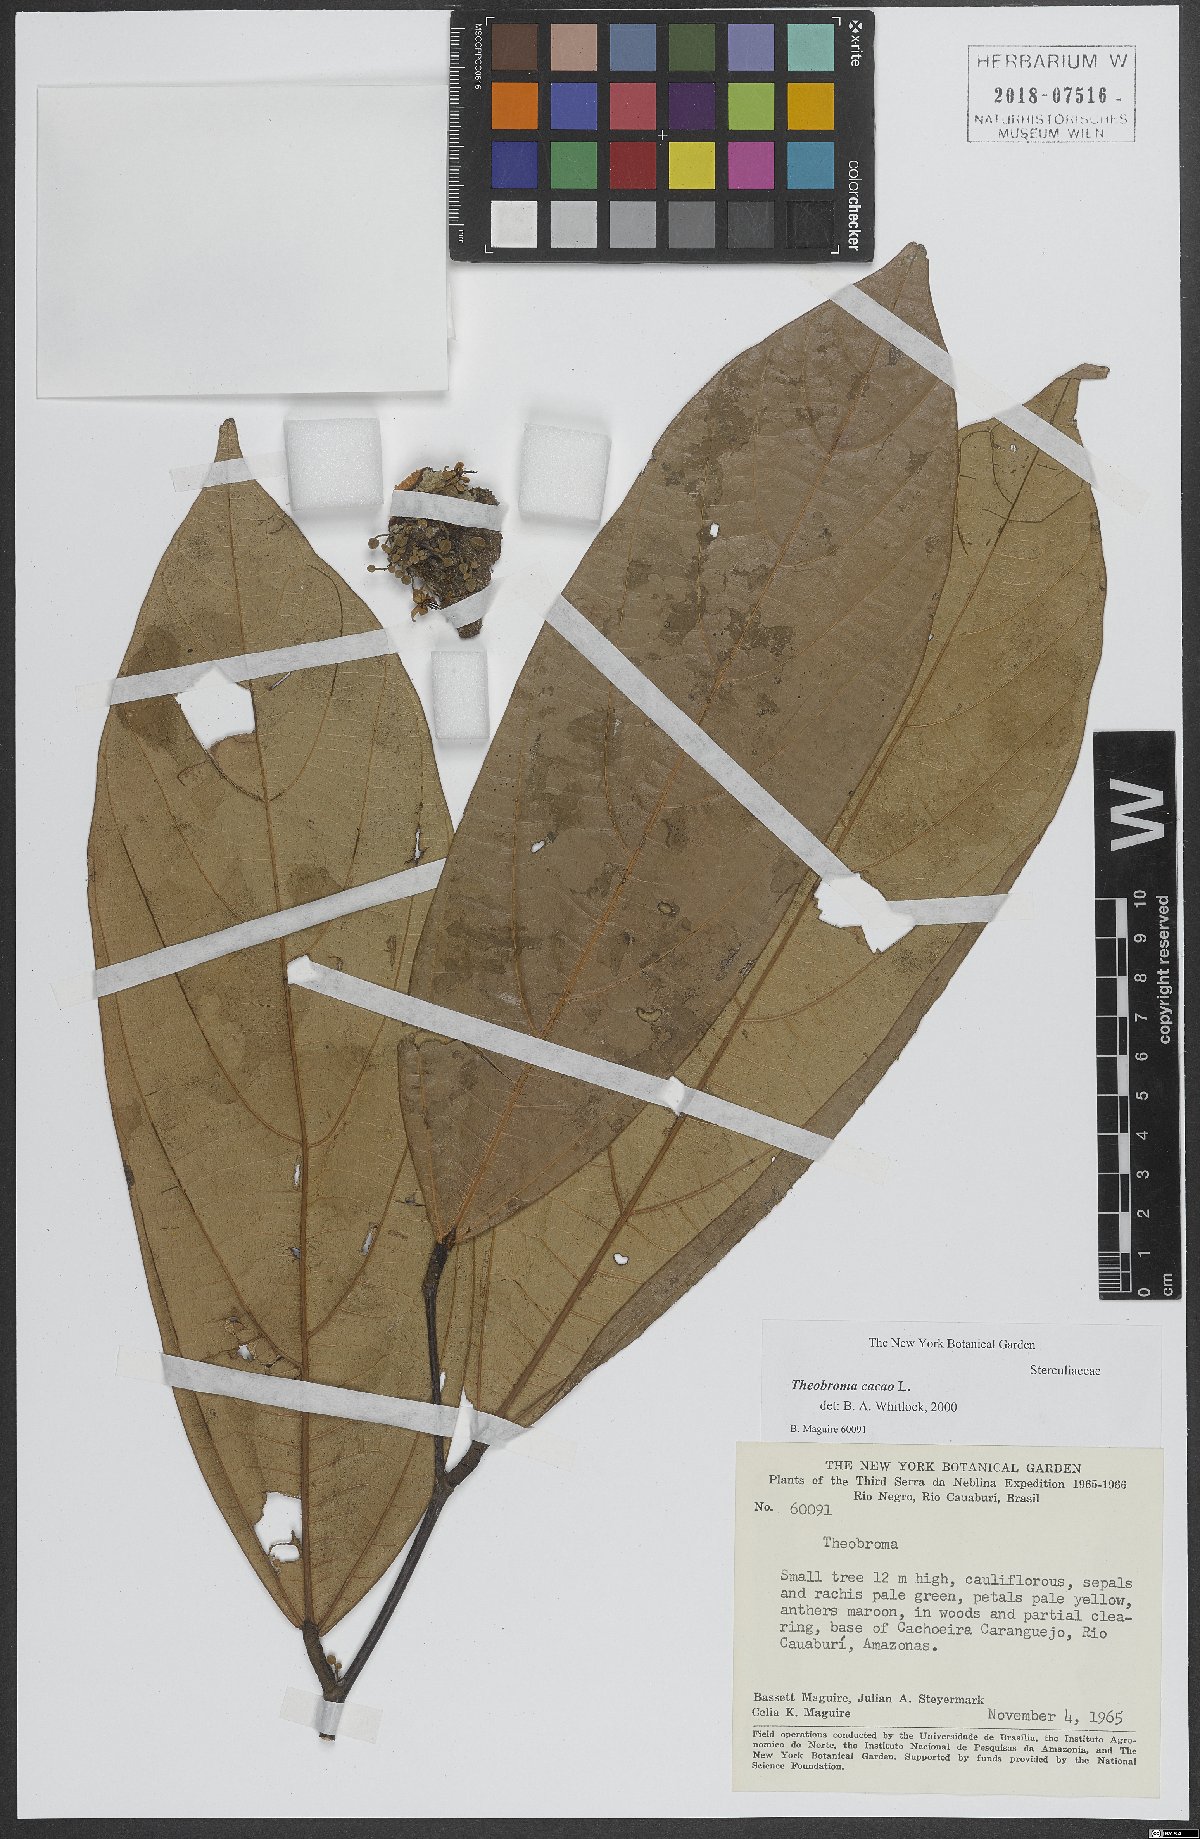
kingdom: Plantae
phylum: Tracheophyta
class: Magnoliopsida
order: Malvales
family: Malvaceae
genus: Theobroma
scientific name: Theobroma cacao
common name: Cocoa
